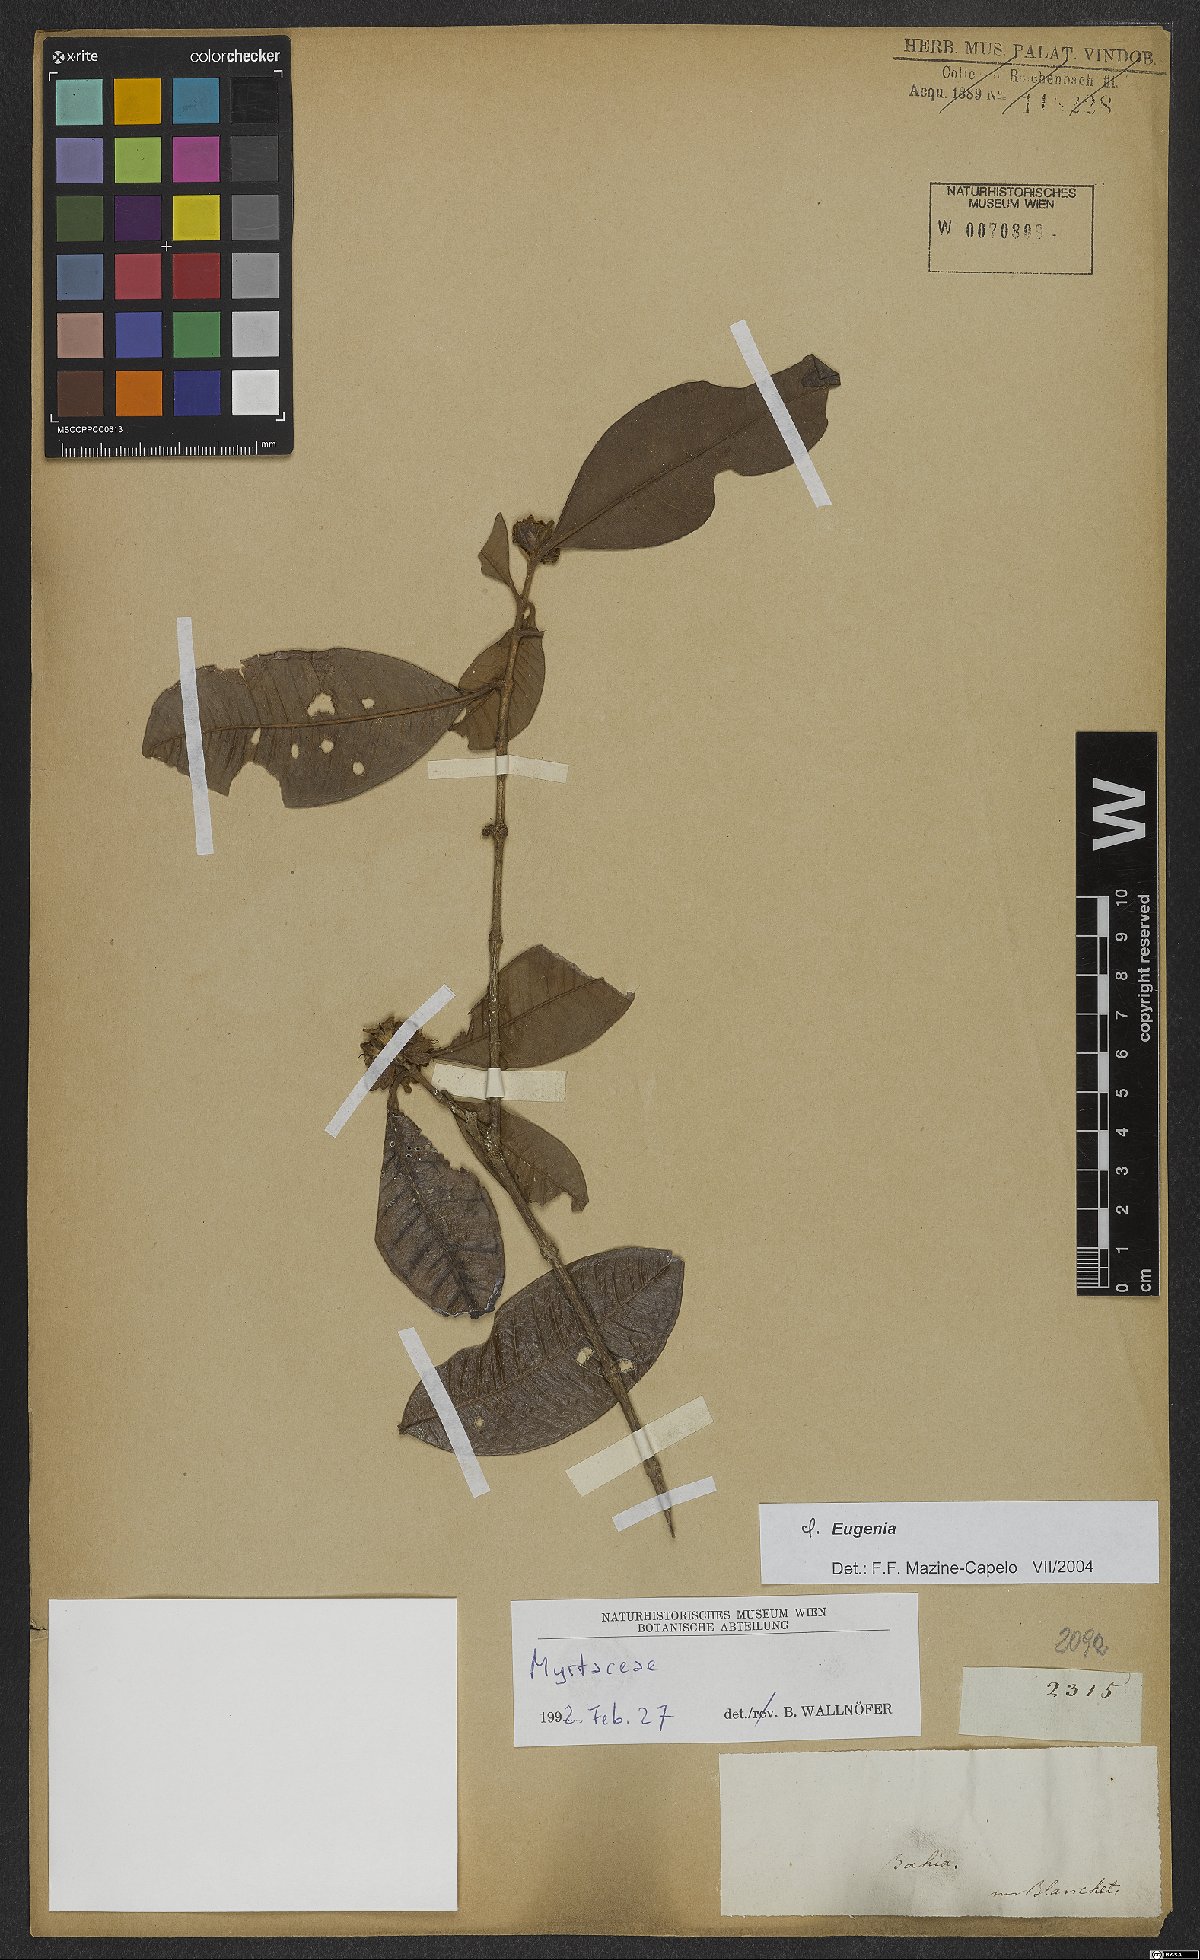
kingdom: Plantae
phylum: Tracheophyta
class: Magnoliopsida
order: Myrtales
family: Myrtaceae
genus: Eugenia
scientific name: Eugenia
